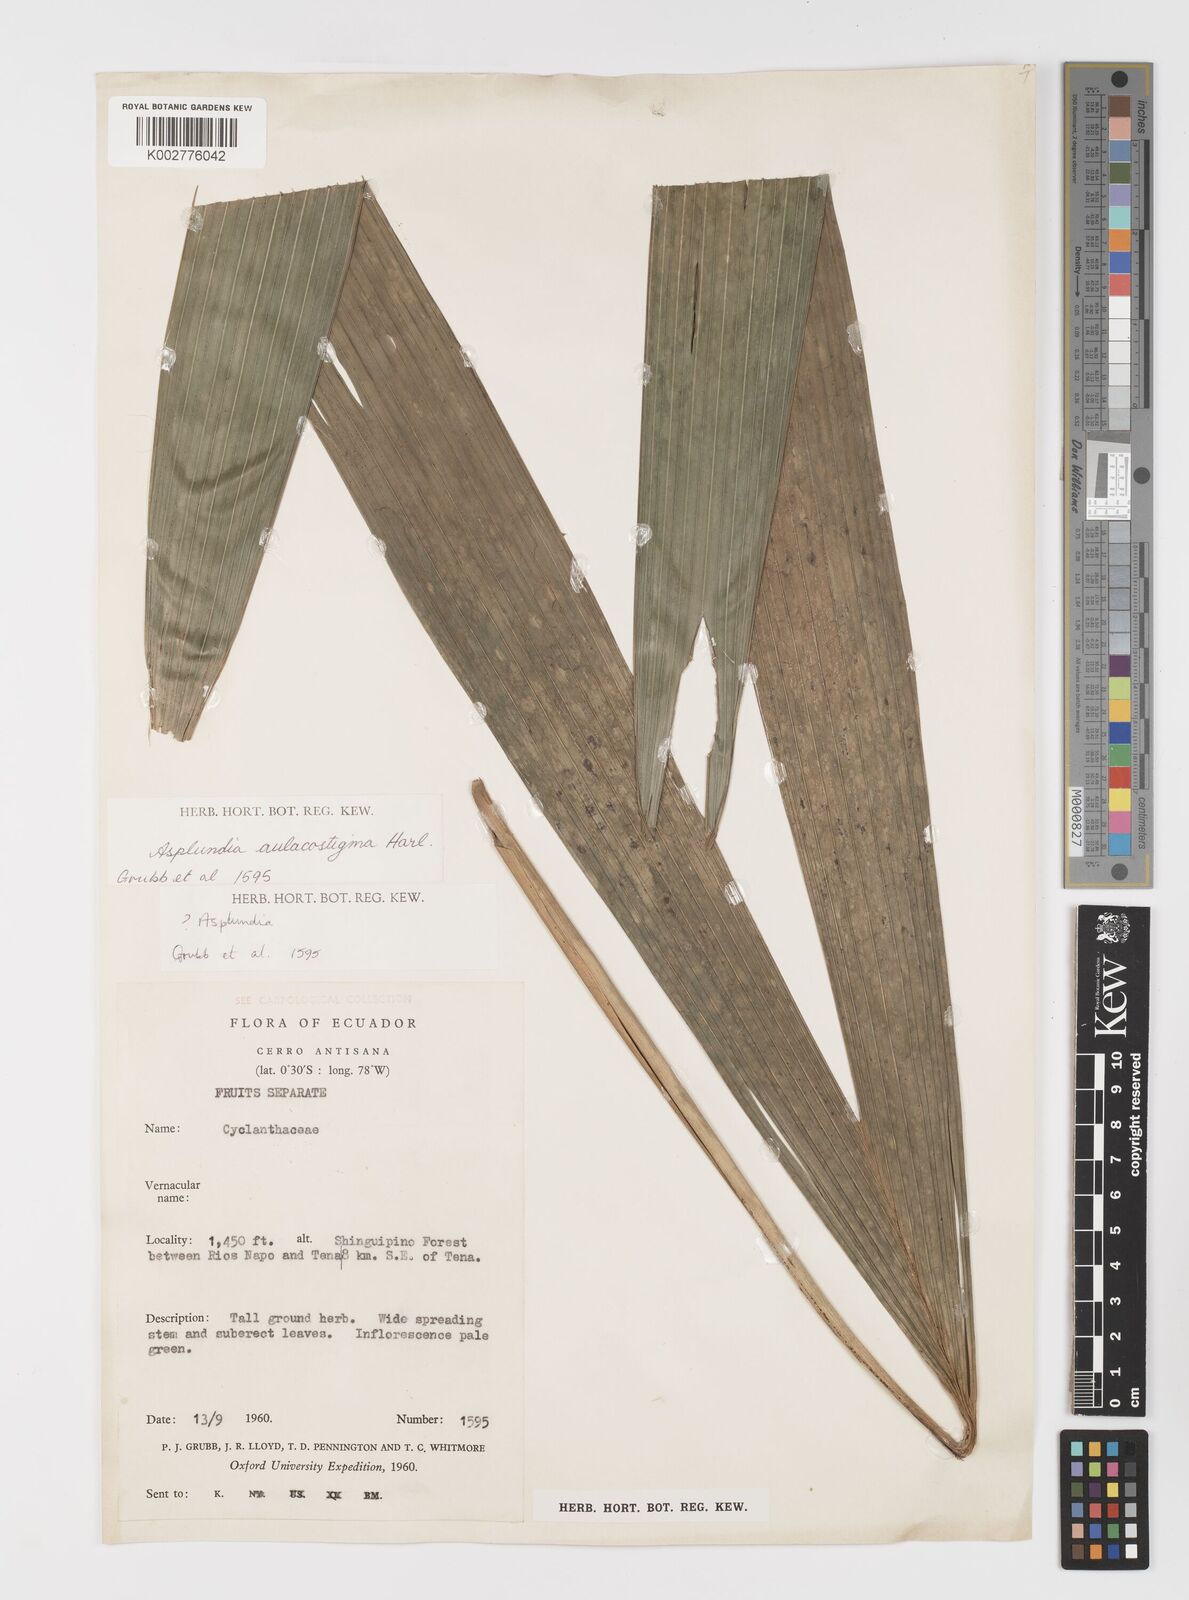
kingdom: Plantae
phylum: Tracheophyta
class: Liliopsida
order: Pandanales
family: Cyclanthaceae
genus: Asplundia
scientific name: Asplundia aulacostigma
